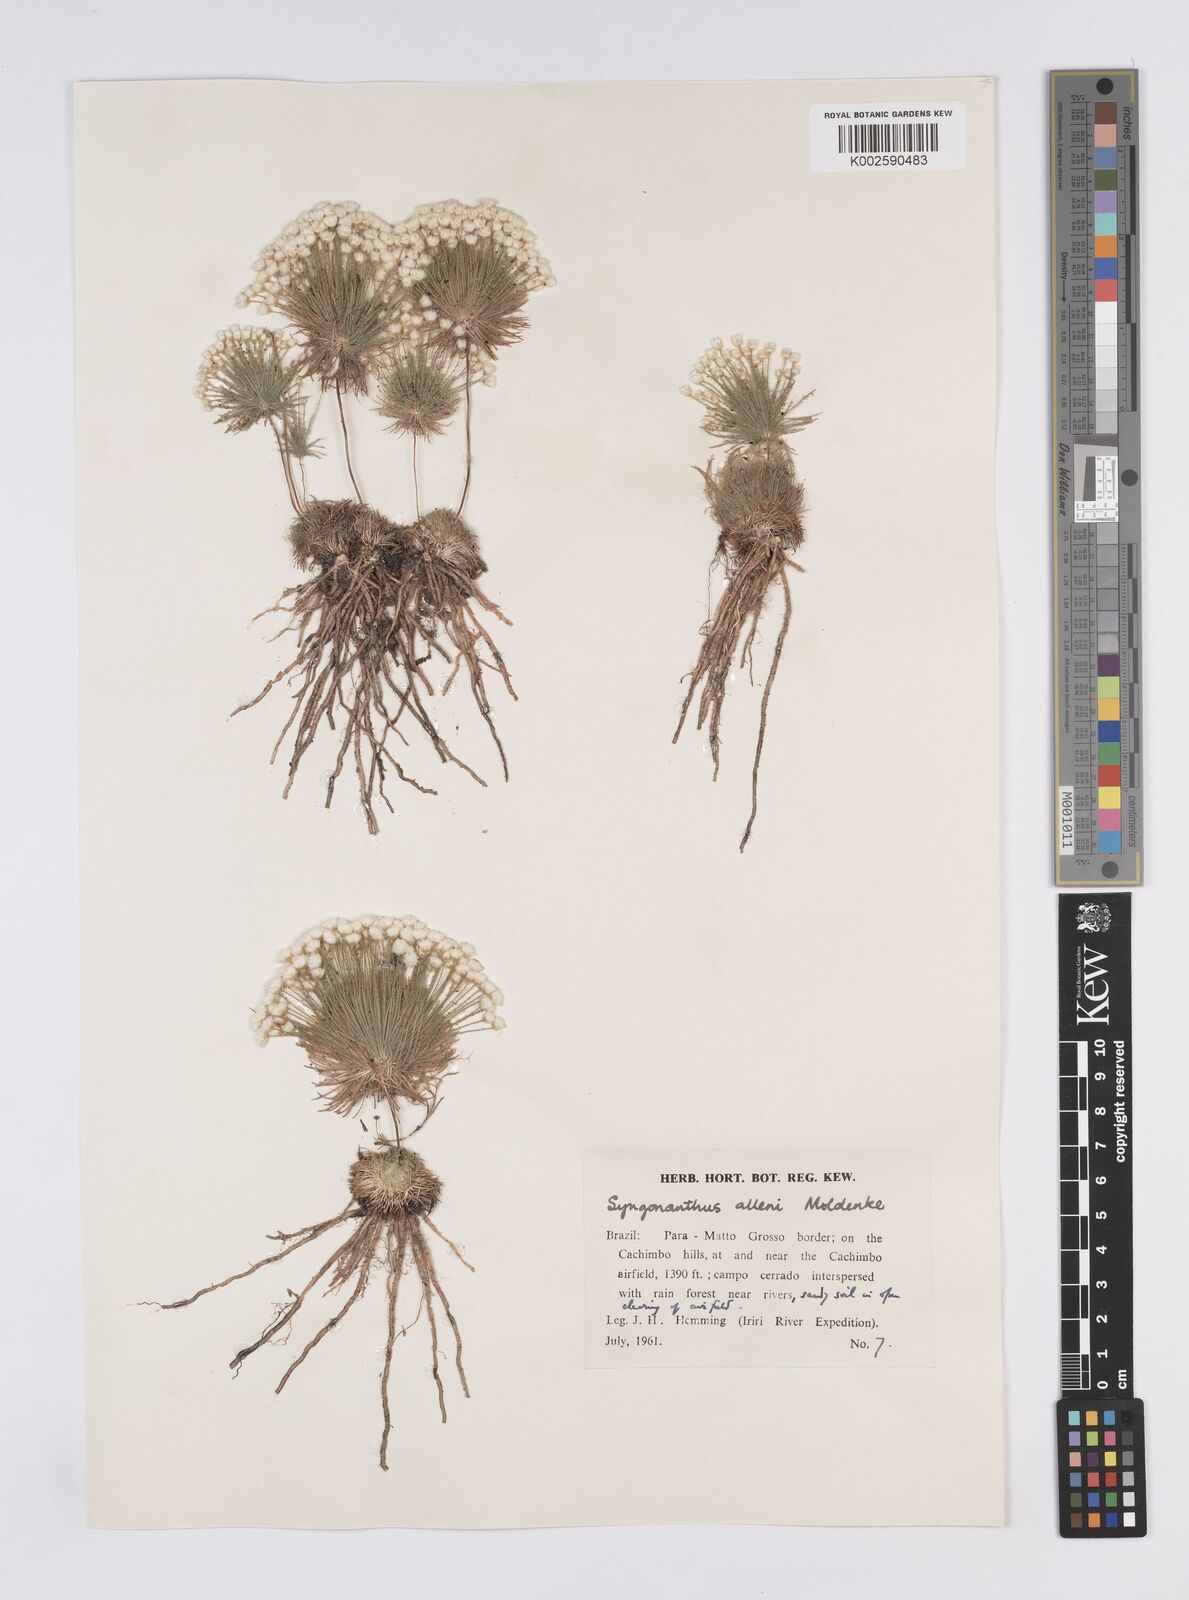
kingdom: Plantae
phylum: Tracheophyta
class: Liliopsida
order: Poales
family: Eriocaulaceae
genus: Syngonanthus
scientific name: Syngonanthus allenii
